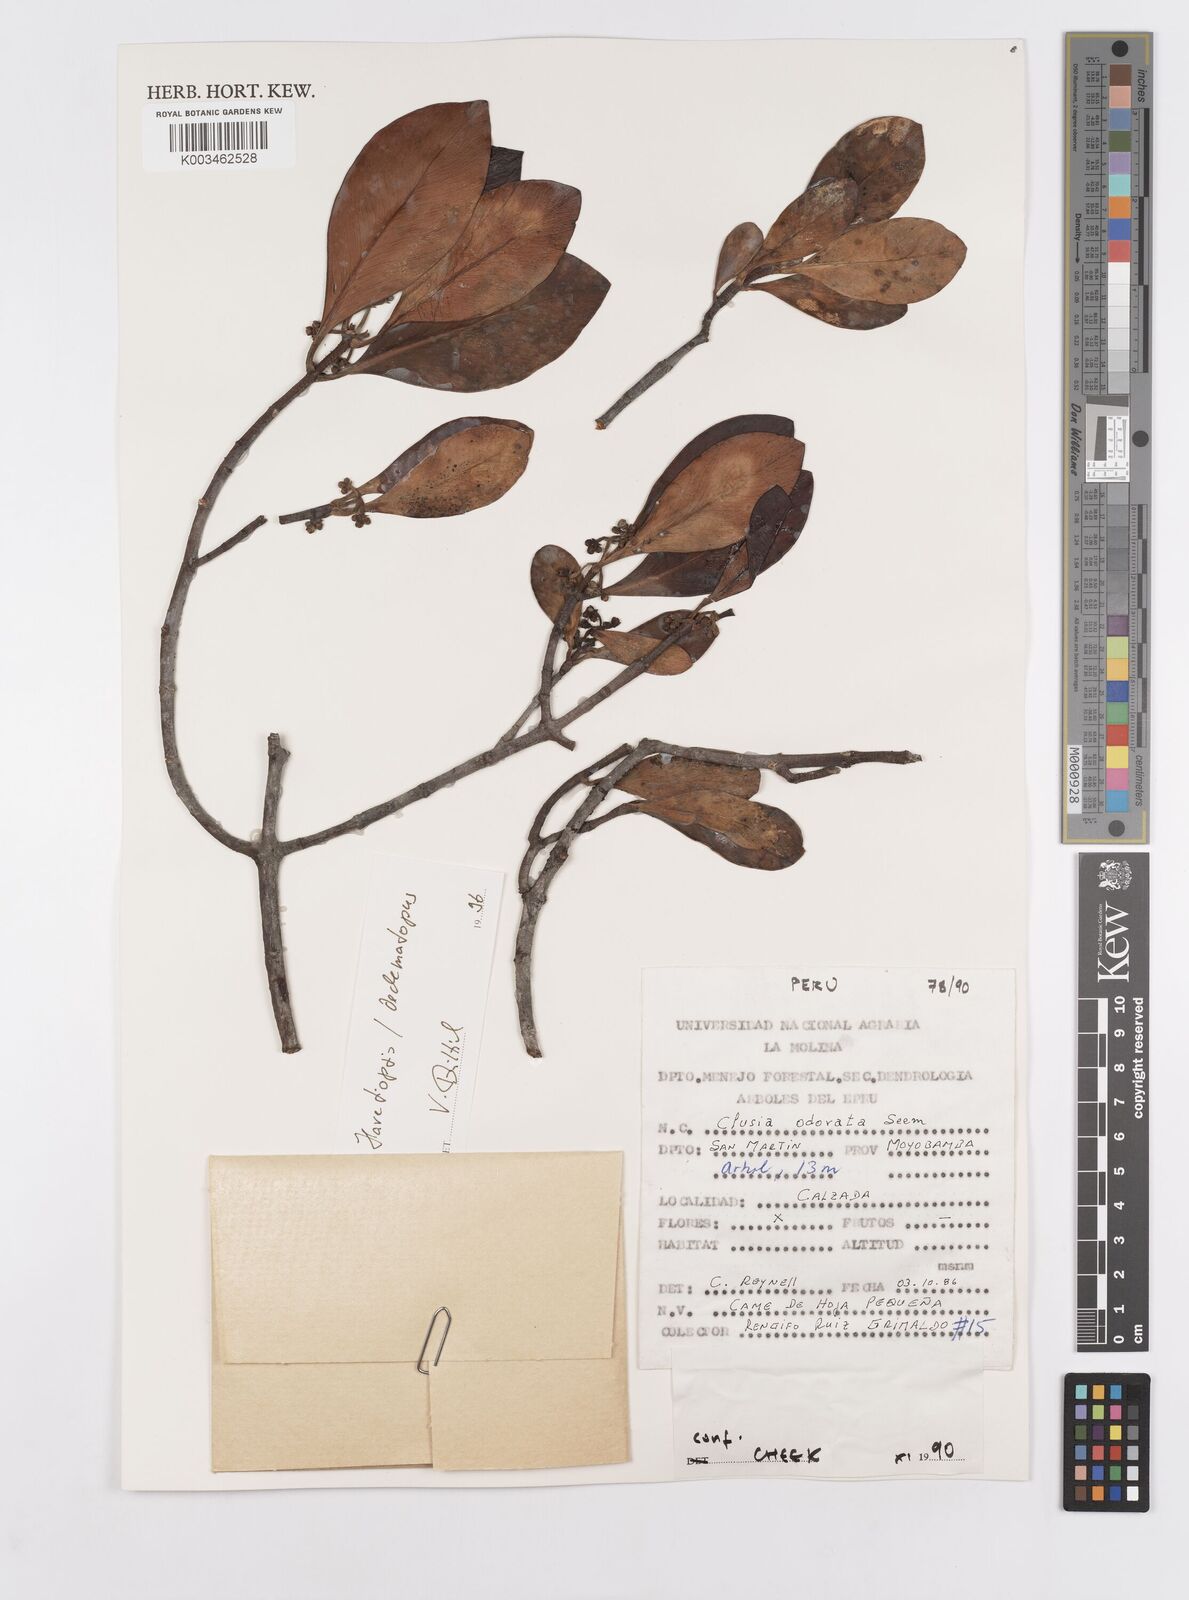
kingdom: Plantae
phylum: Tracheophyta
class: Magnoliopsida
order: Malpighiales
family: Clusiaceae
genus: Clusia
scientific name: Clusia minor
